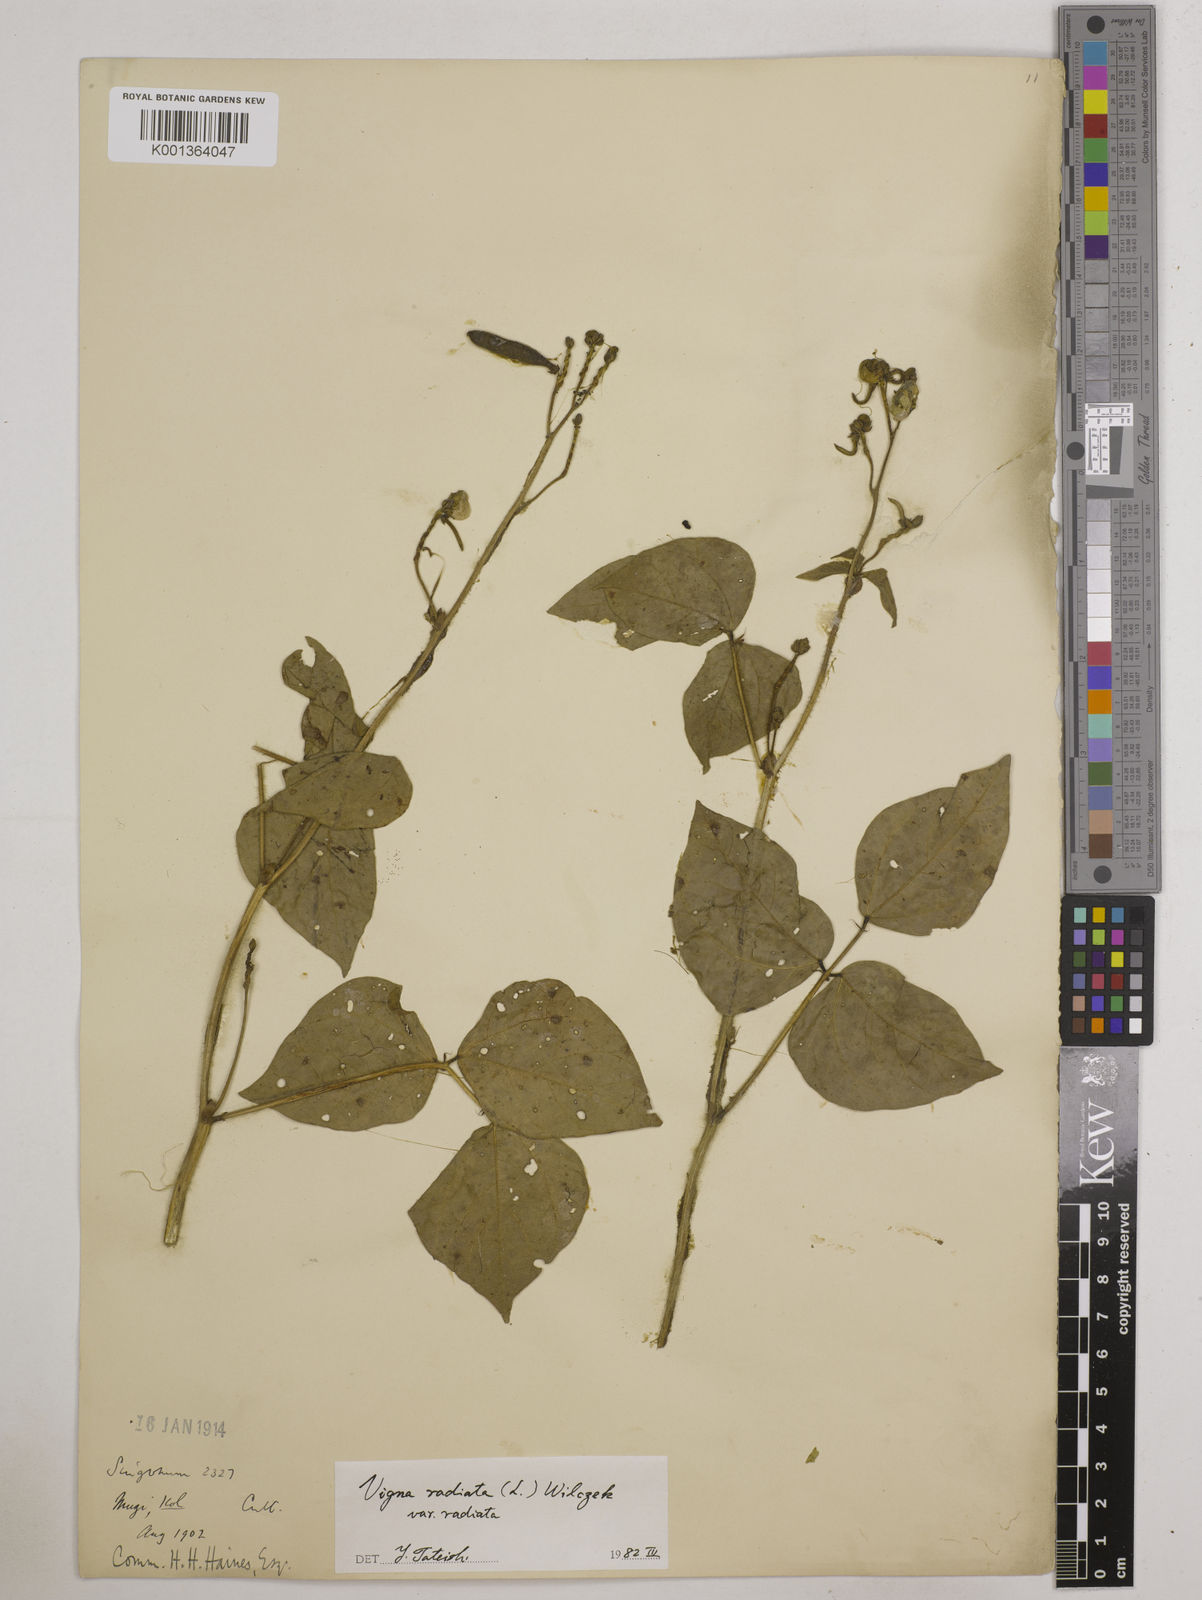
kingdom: Plantae
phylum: Tracheophyta
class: Magnoliopsida
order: Fabales
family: Fabaceae
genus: Vigna
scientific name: Vigna radiata
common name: Mung-bean
